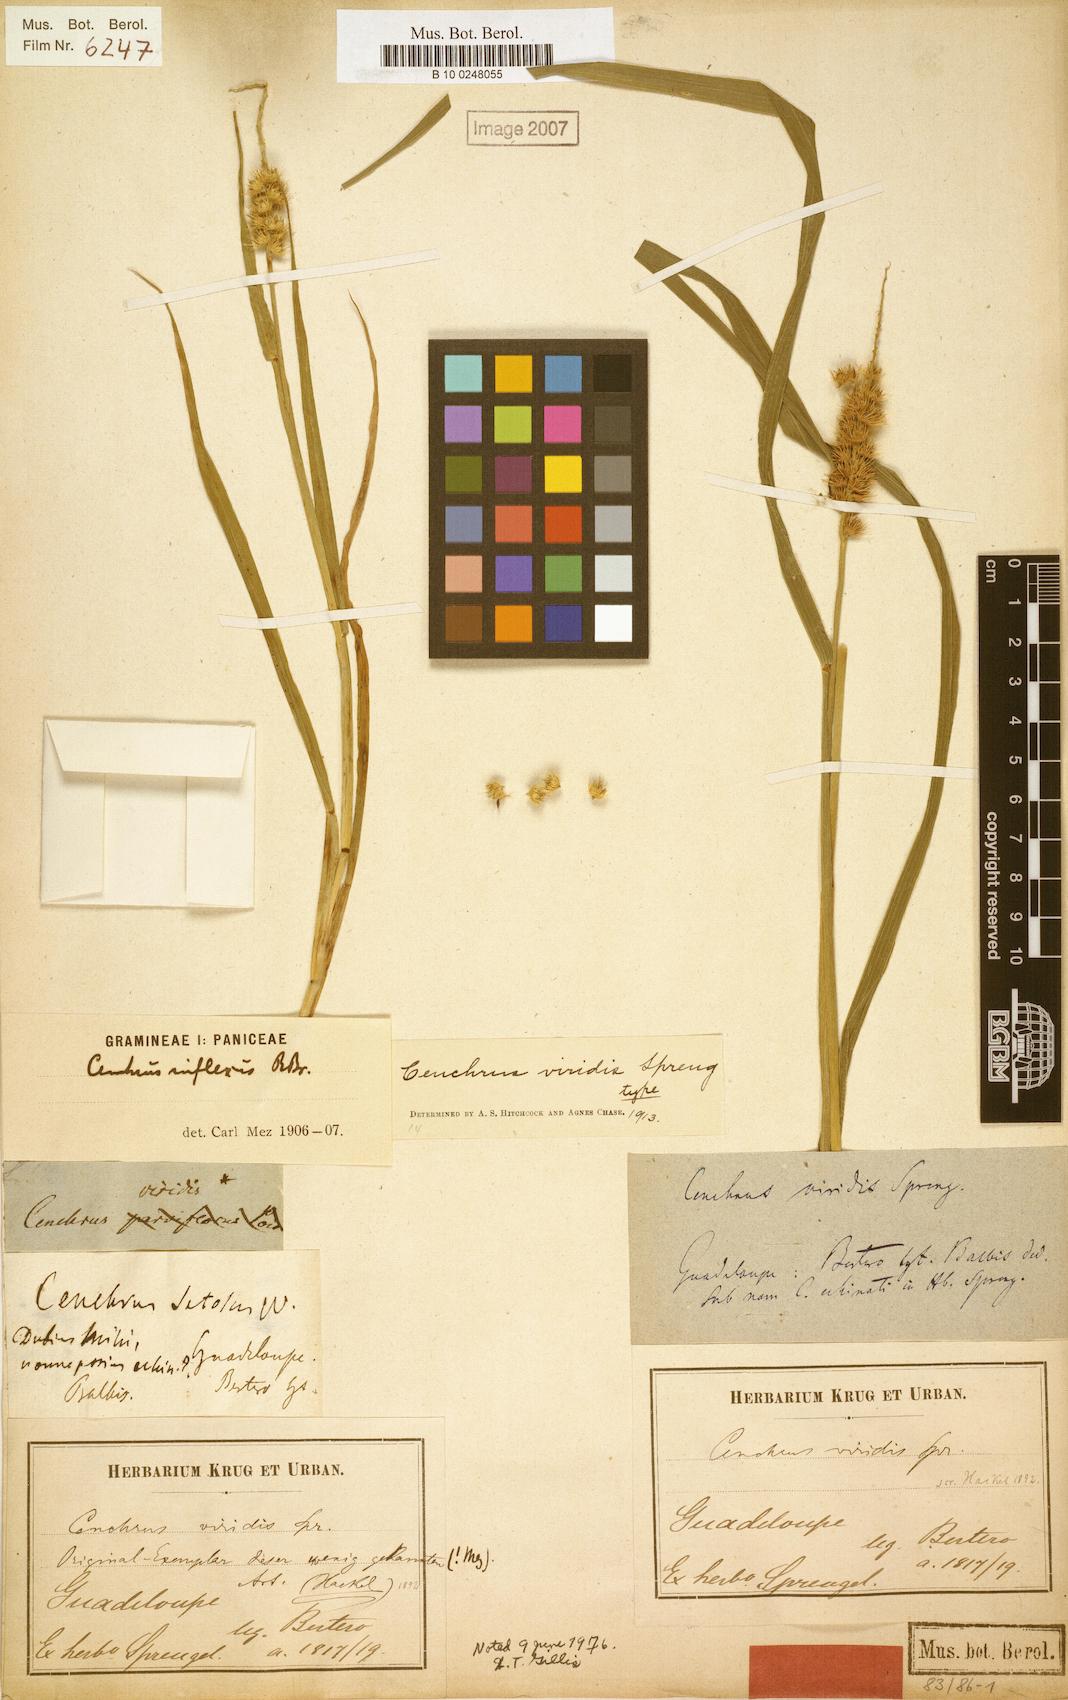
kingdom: Plantae
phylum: Tracheophyta
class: Liliopsida
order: Poales
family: Poaceae
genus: Cenchrus
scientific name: Cenchrus brownii
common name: Slim-bristle sandbur
